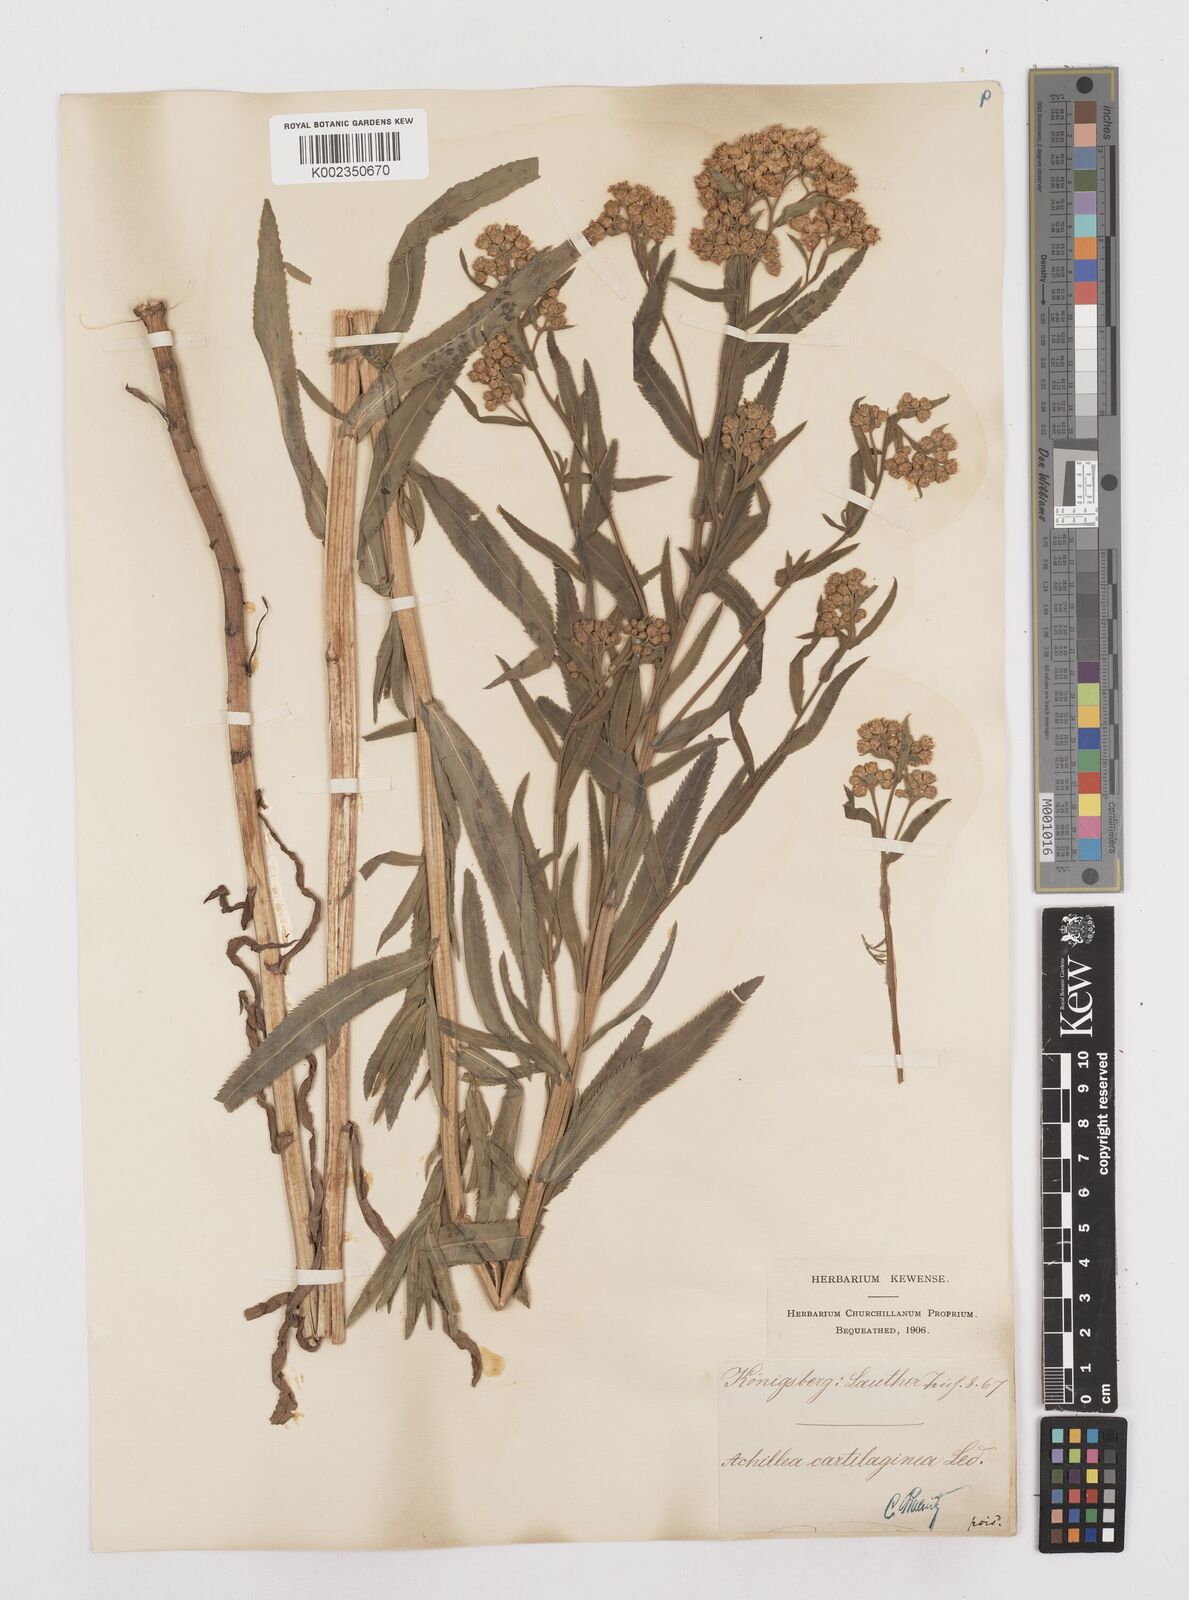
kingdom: Plantae
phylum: Tracheophyta
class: Magnoliopsida
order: Asterales
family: Asteraceae
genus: Achillea
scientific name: Achillea salicifolia
